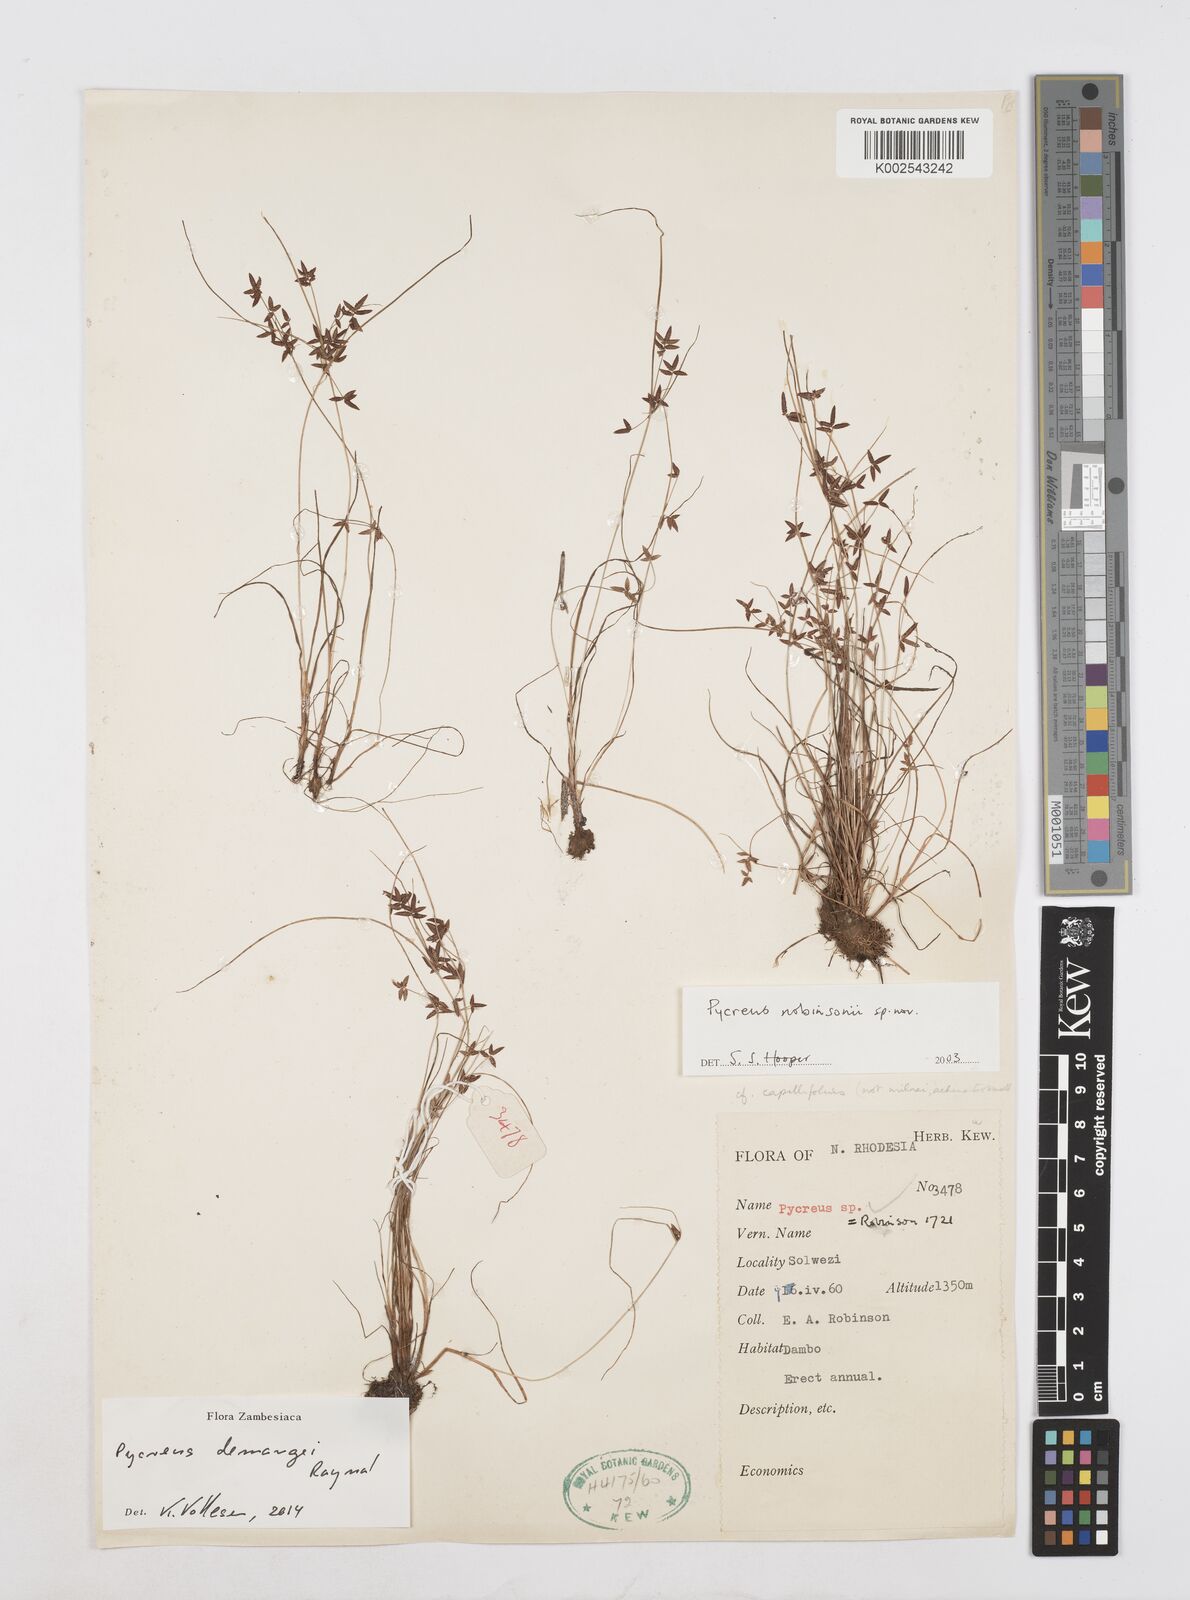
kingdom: Plantae
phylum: Tracheophyta
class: Liliopsida
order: Poales
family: Cyperaceae
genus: Cyperus
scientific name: Cyperus demangei
